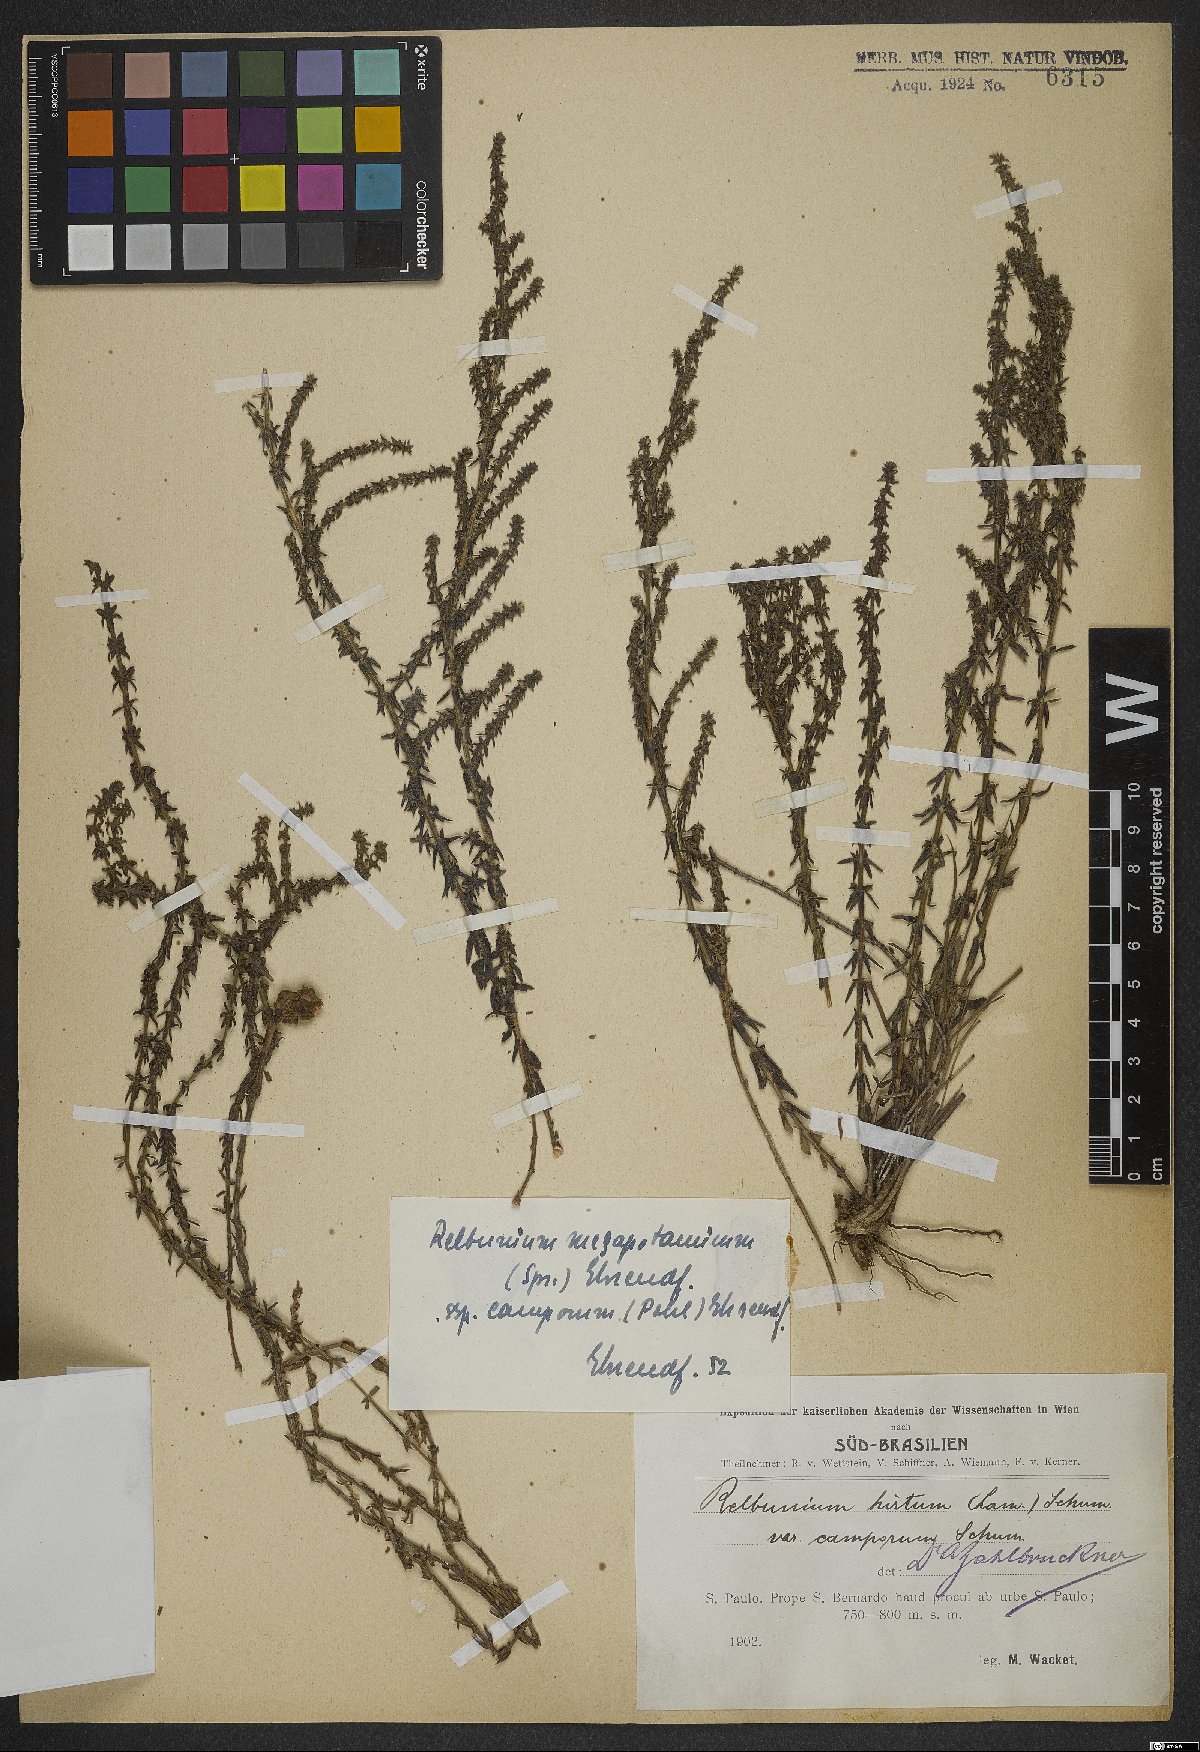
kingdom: Plantae
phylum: Tracheophyta
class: Magnoliopsida
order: Gentianales
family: Rubiaceae
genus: Galium
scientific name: Galium megapotamicum
